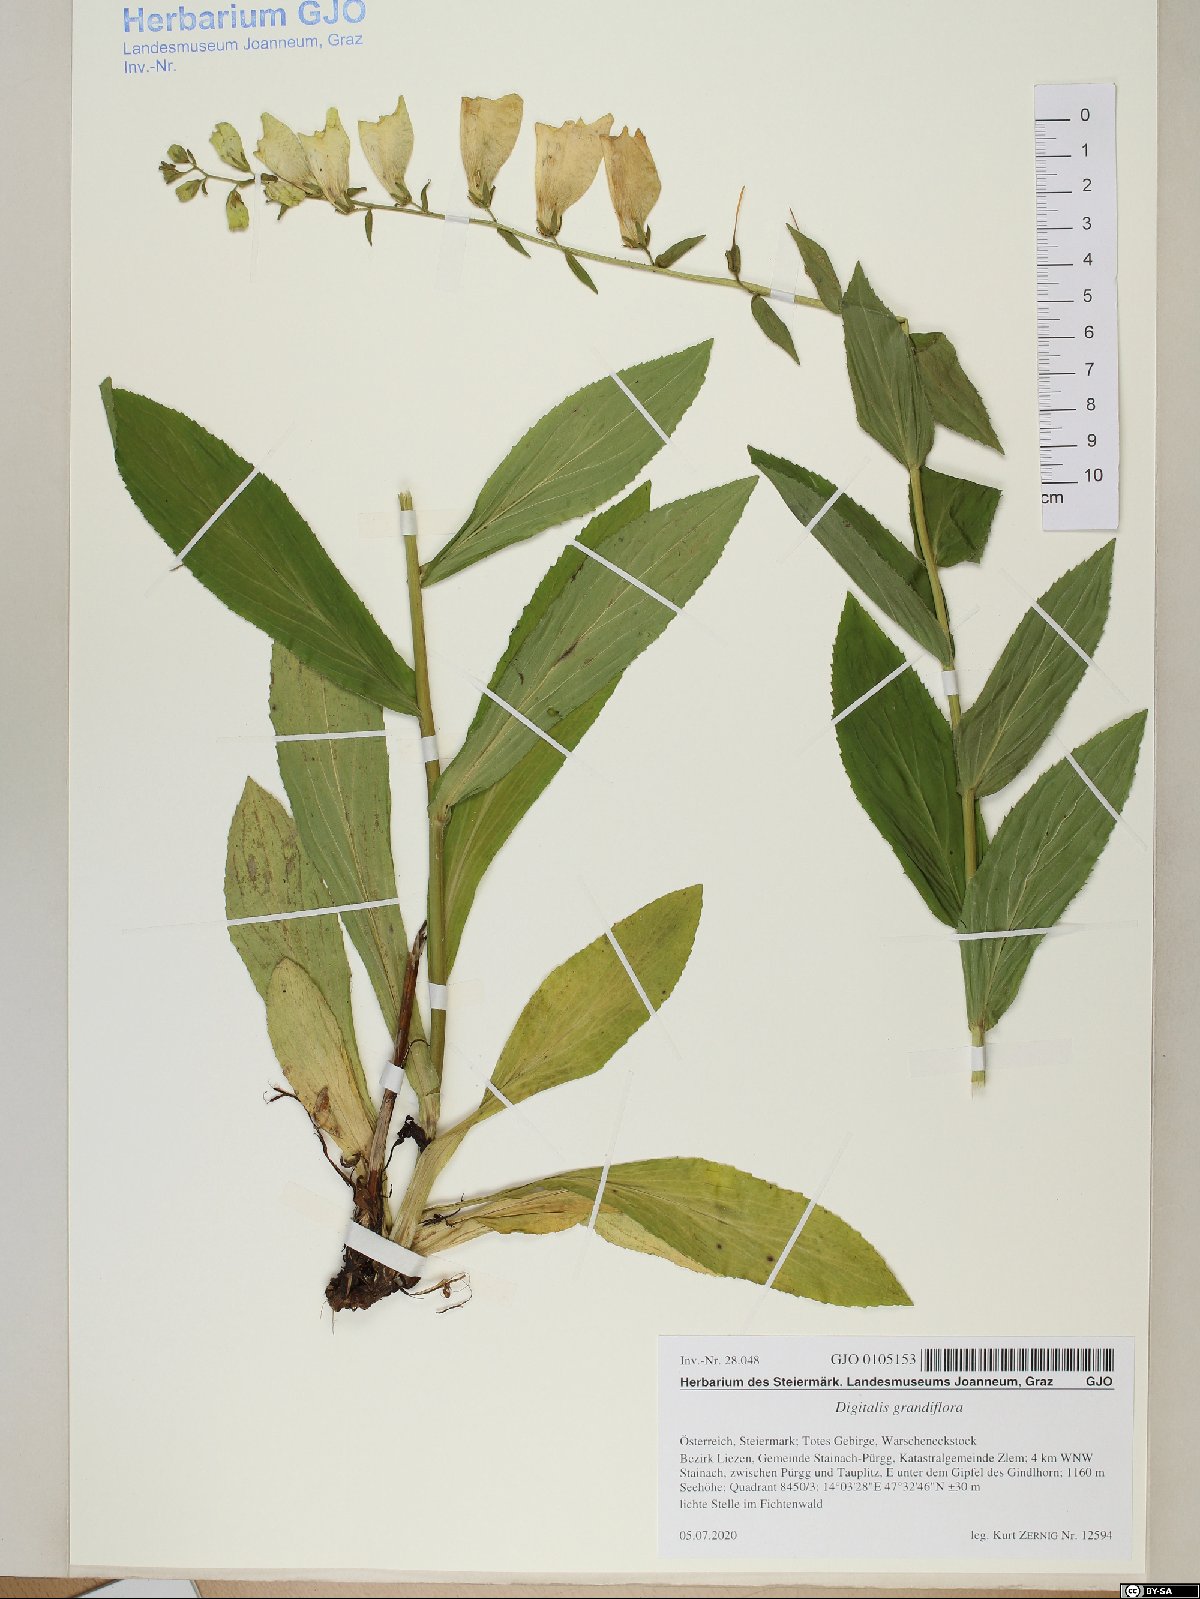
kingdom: Plantae
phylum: Tracheophyta
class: Magnoliopsida
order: Lamiales
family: Plantaginaceae
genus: Digitalis
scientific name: Digitalis grandiflora
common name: Yellow foxglove
